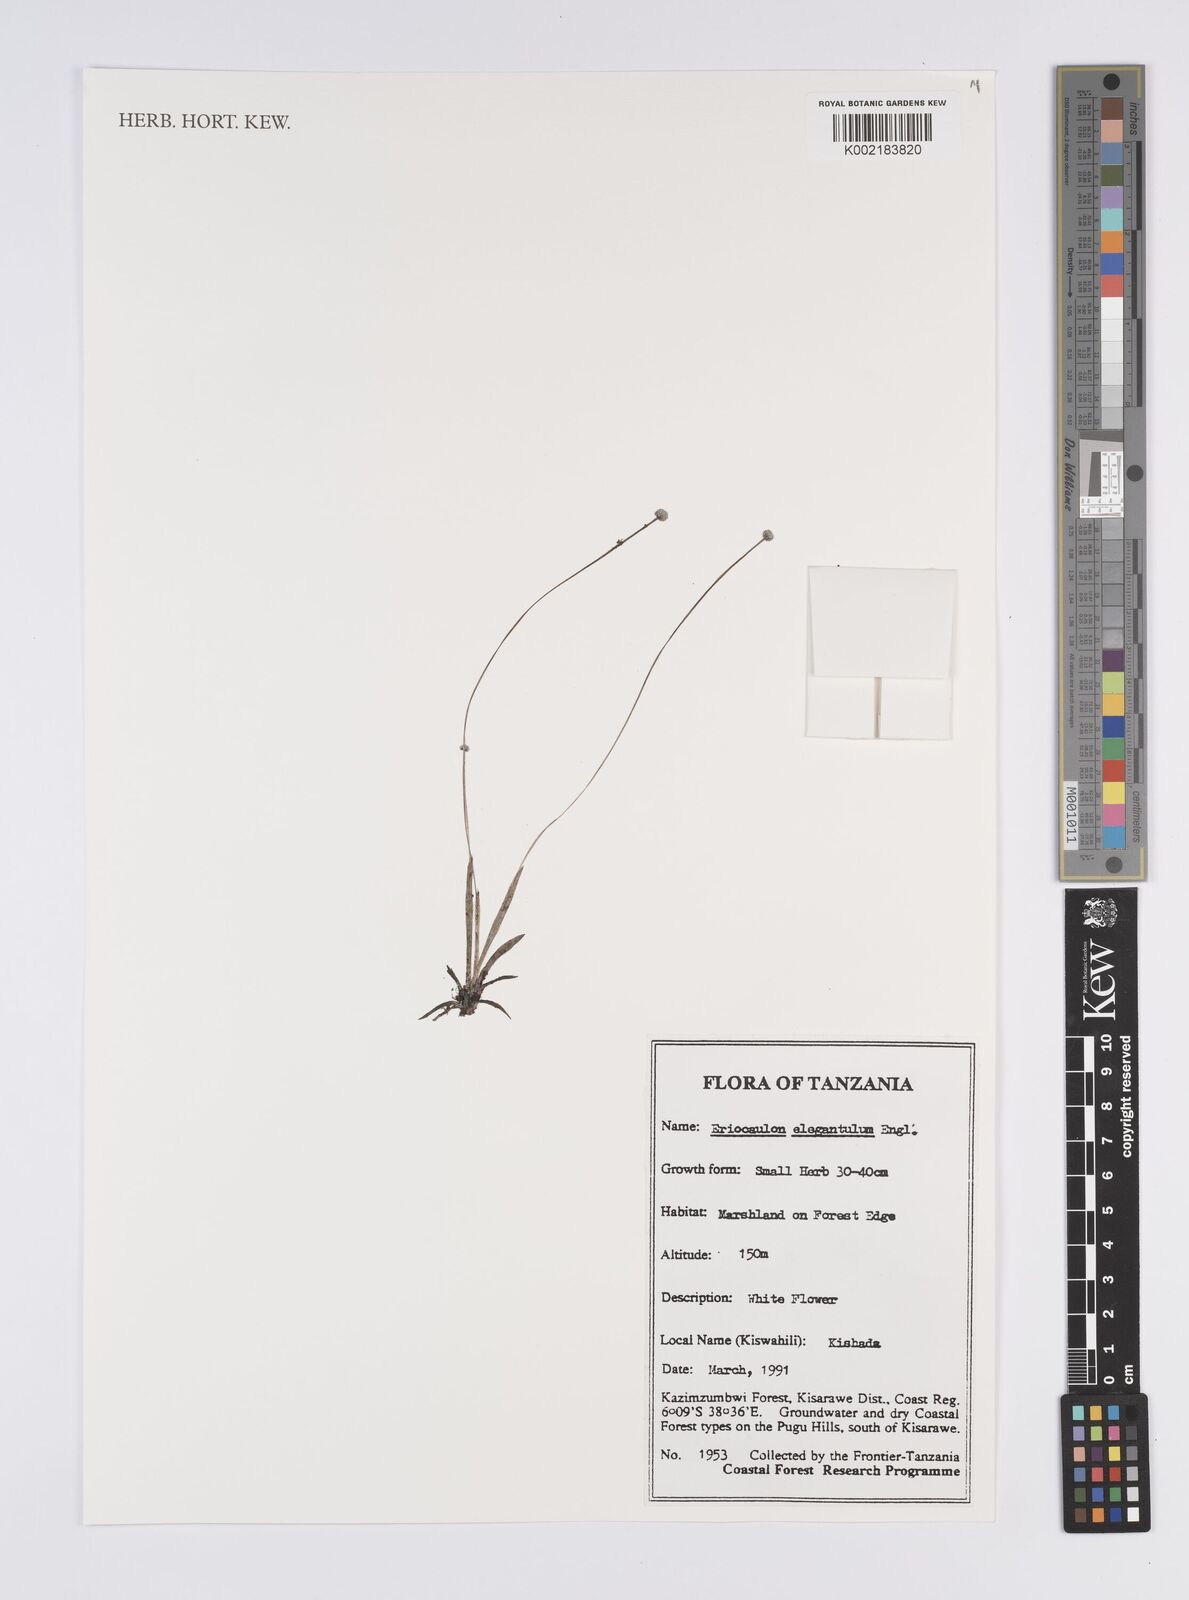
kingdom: Plantae
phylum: Tracheophyta
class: Liliopsida
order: Poales
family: Eriocaulaceae
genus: Eriocaulon
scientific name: Eriocaulon elegantulum
